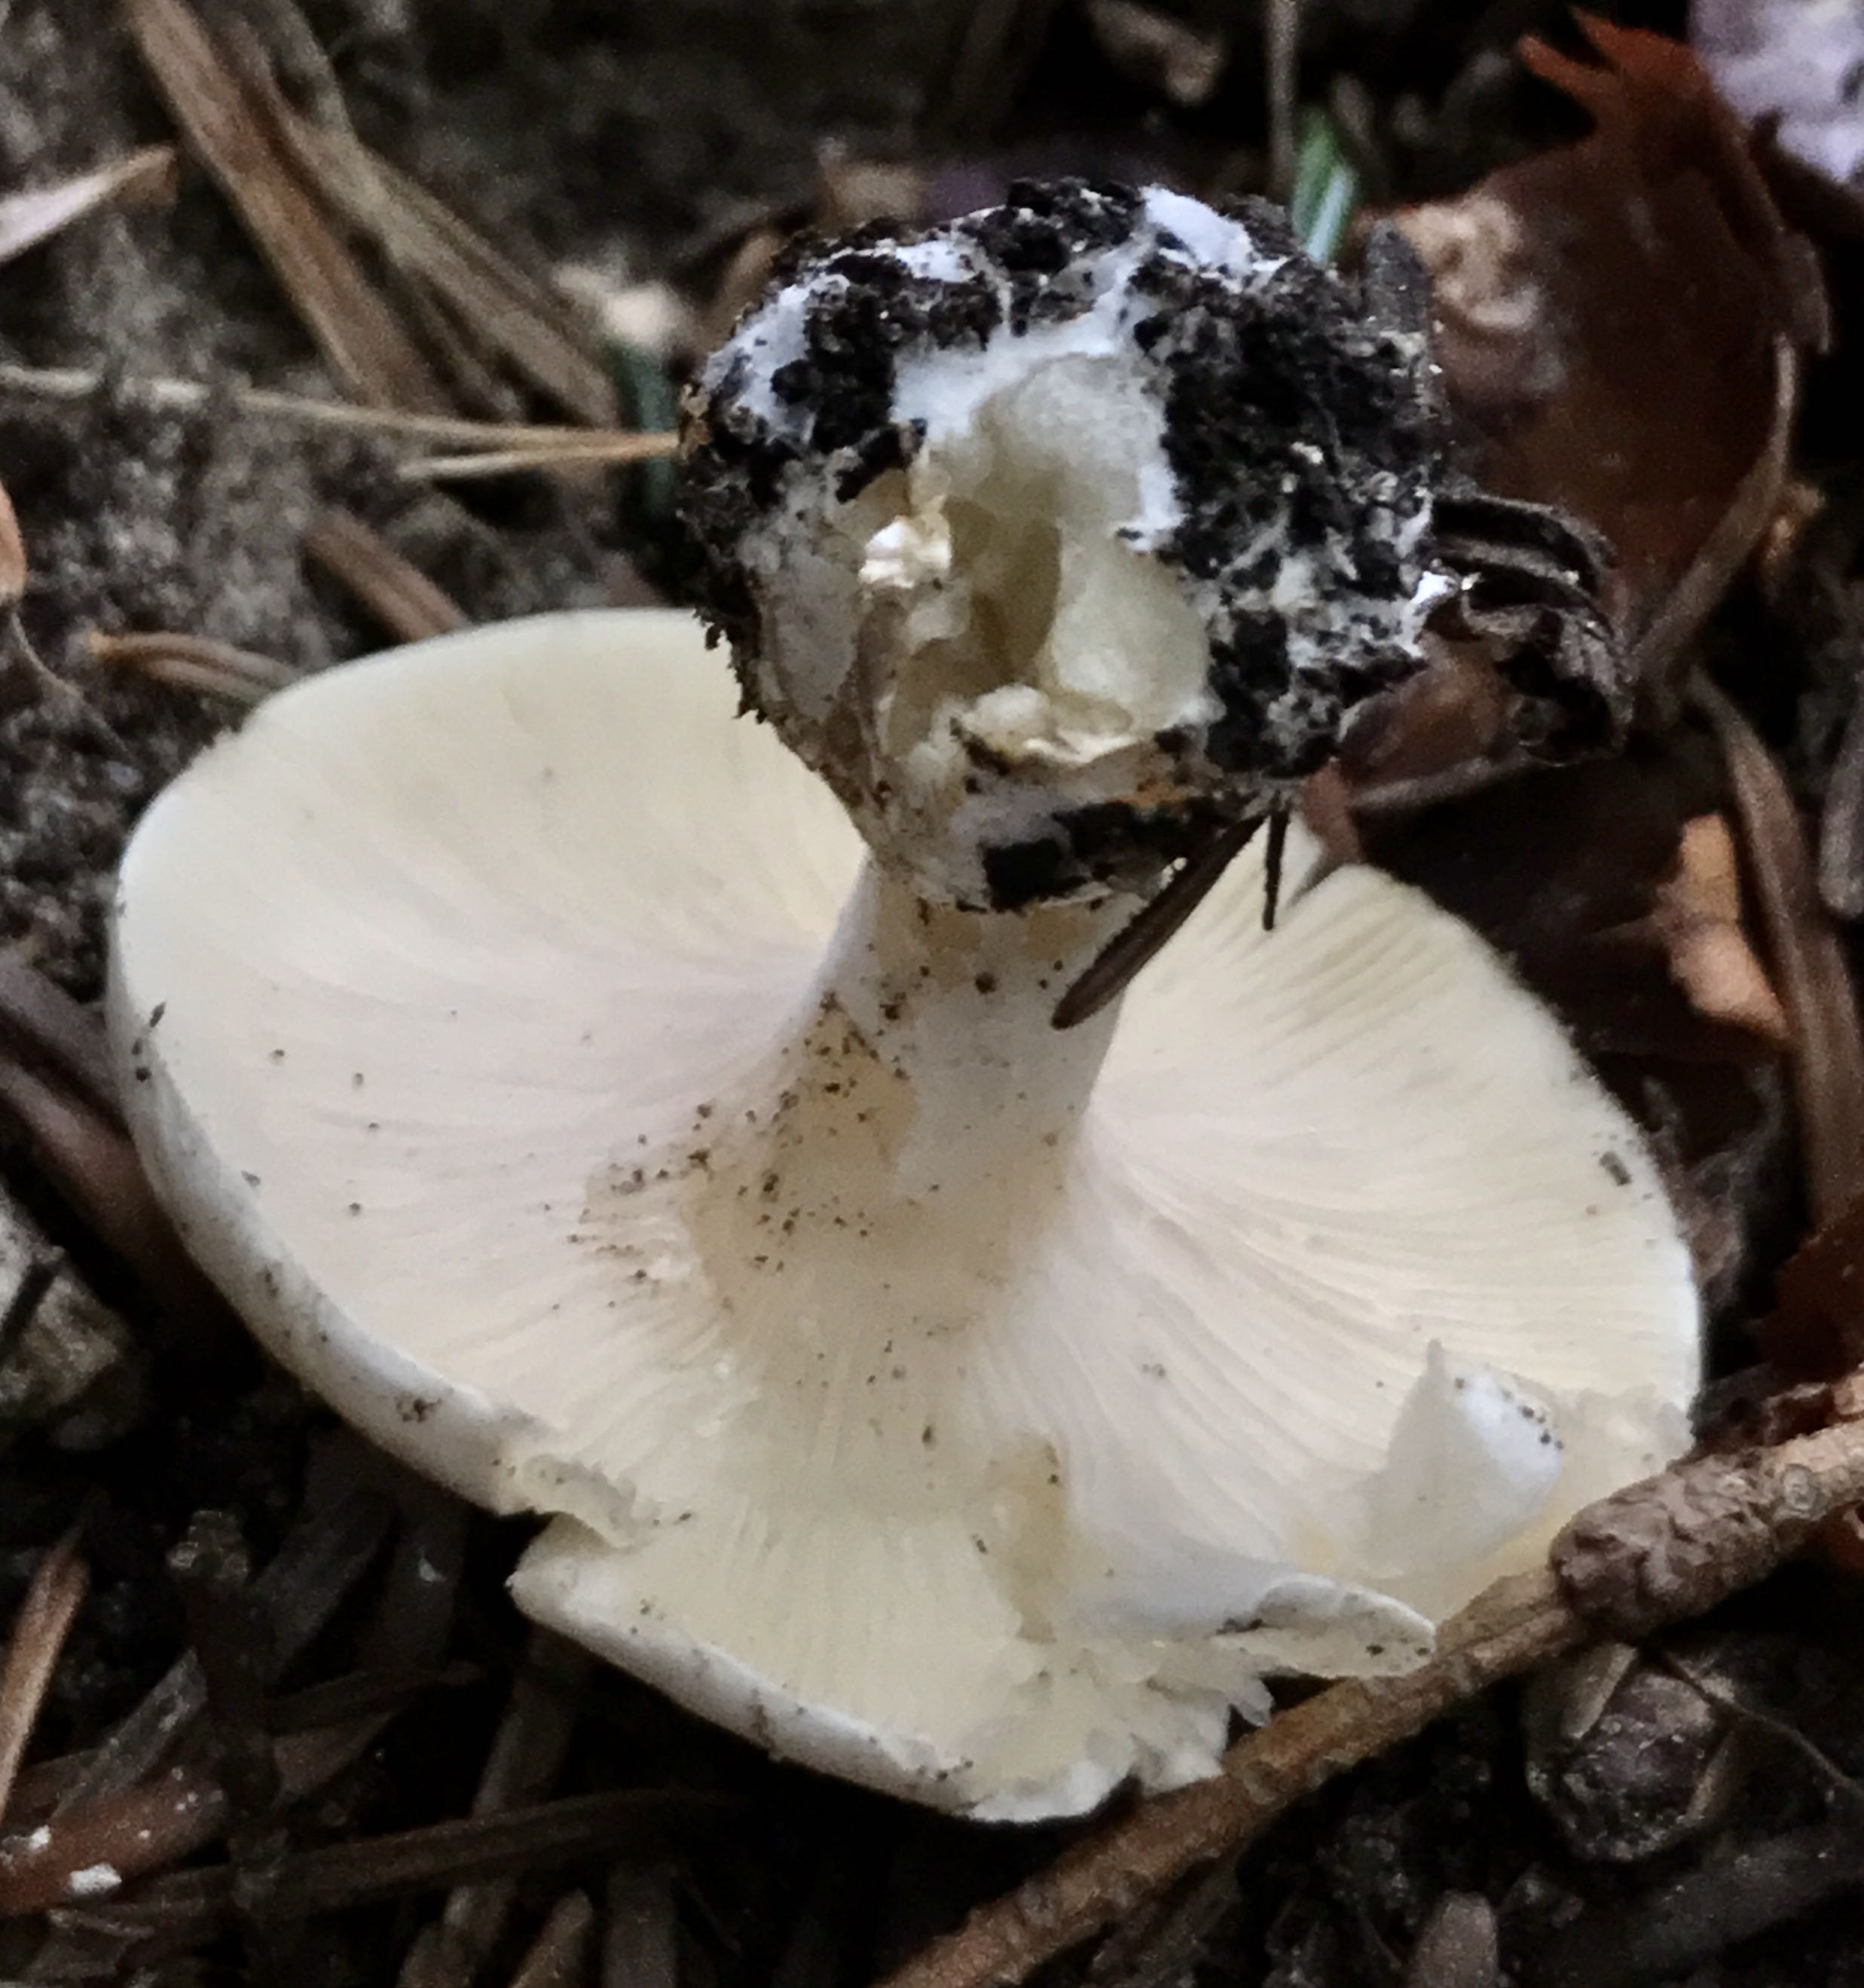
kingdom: Fungi
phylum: Basidiomycota
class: Agaricomycetes
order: Agaricales
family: Entolomataceae
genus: Clitopilus
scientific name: Clitopilus prunulus
